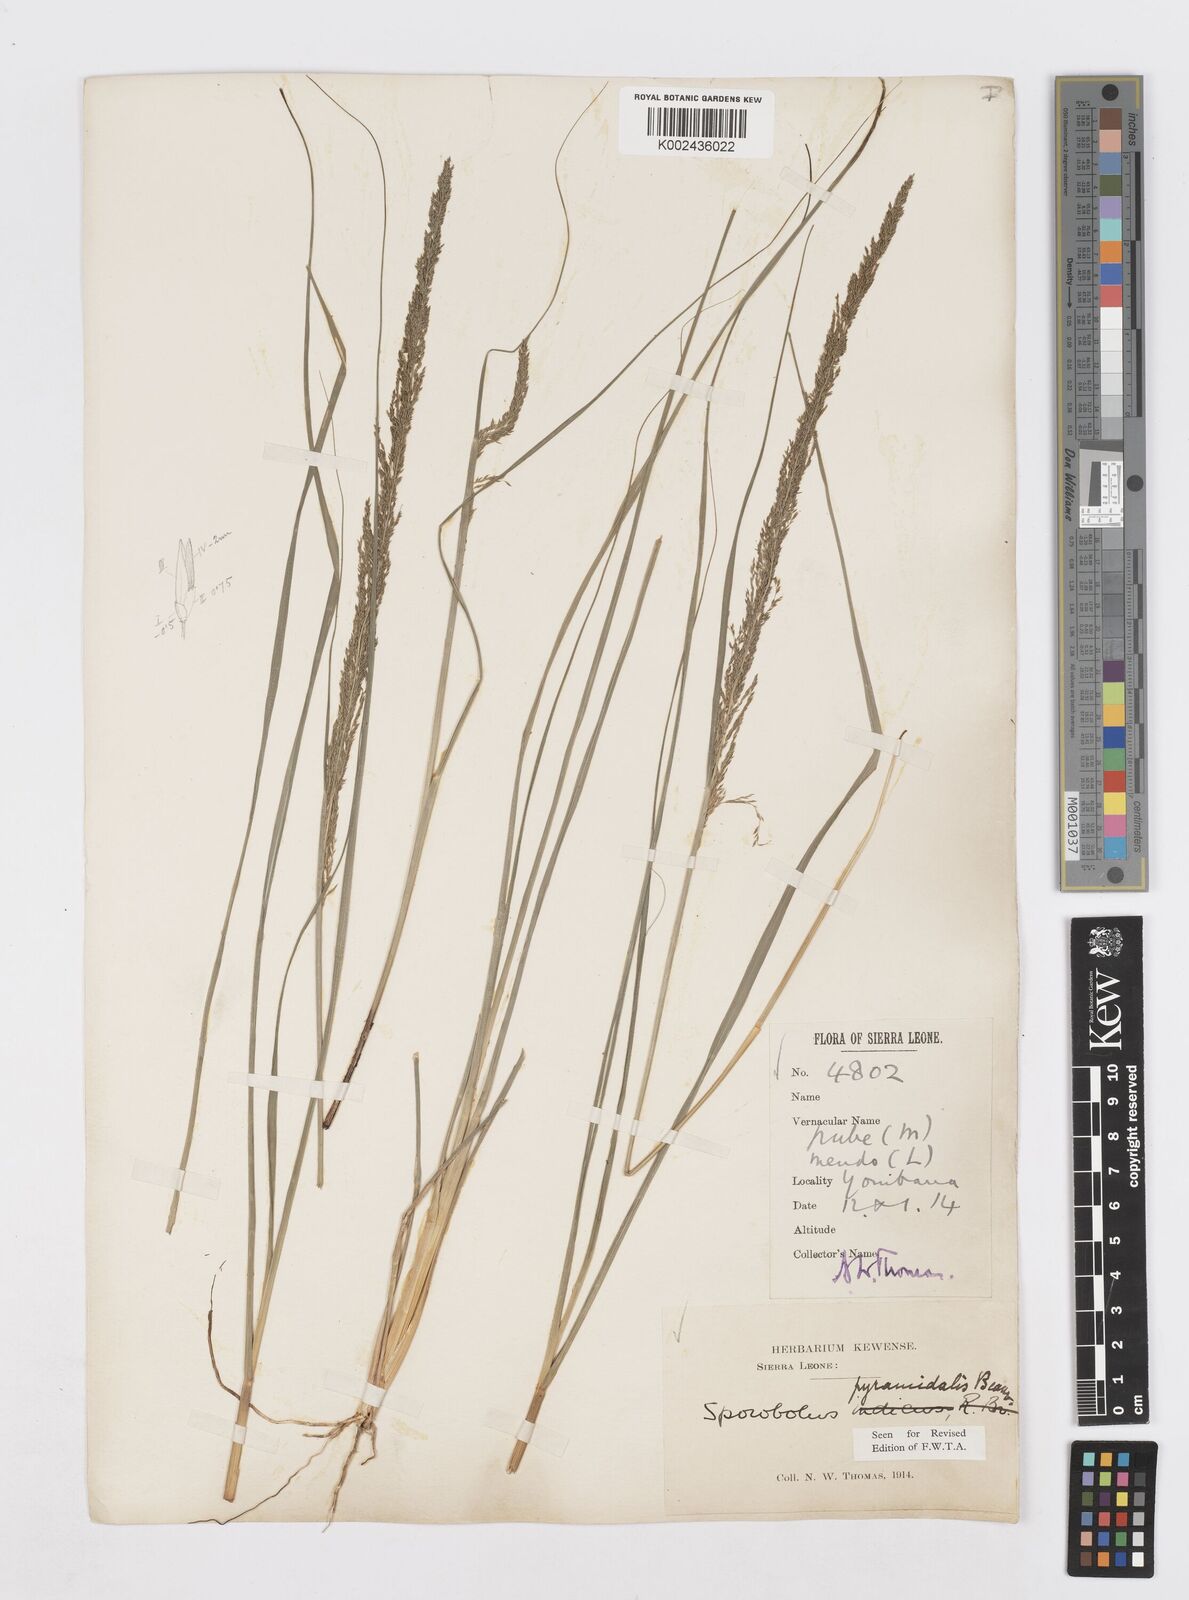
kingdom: Plantae
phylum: Tracheophyta
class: Liliopsida
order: Poales
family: Poaceae
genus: Sporobolus
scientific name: Sporobolus pyramidalis
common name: West indian dropseed
